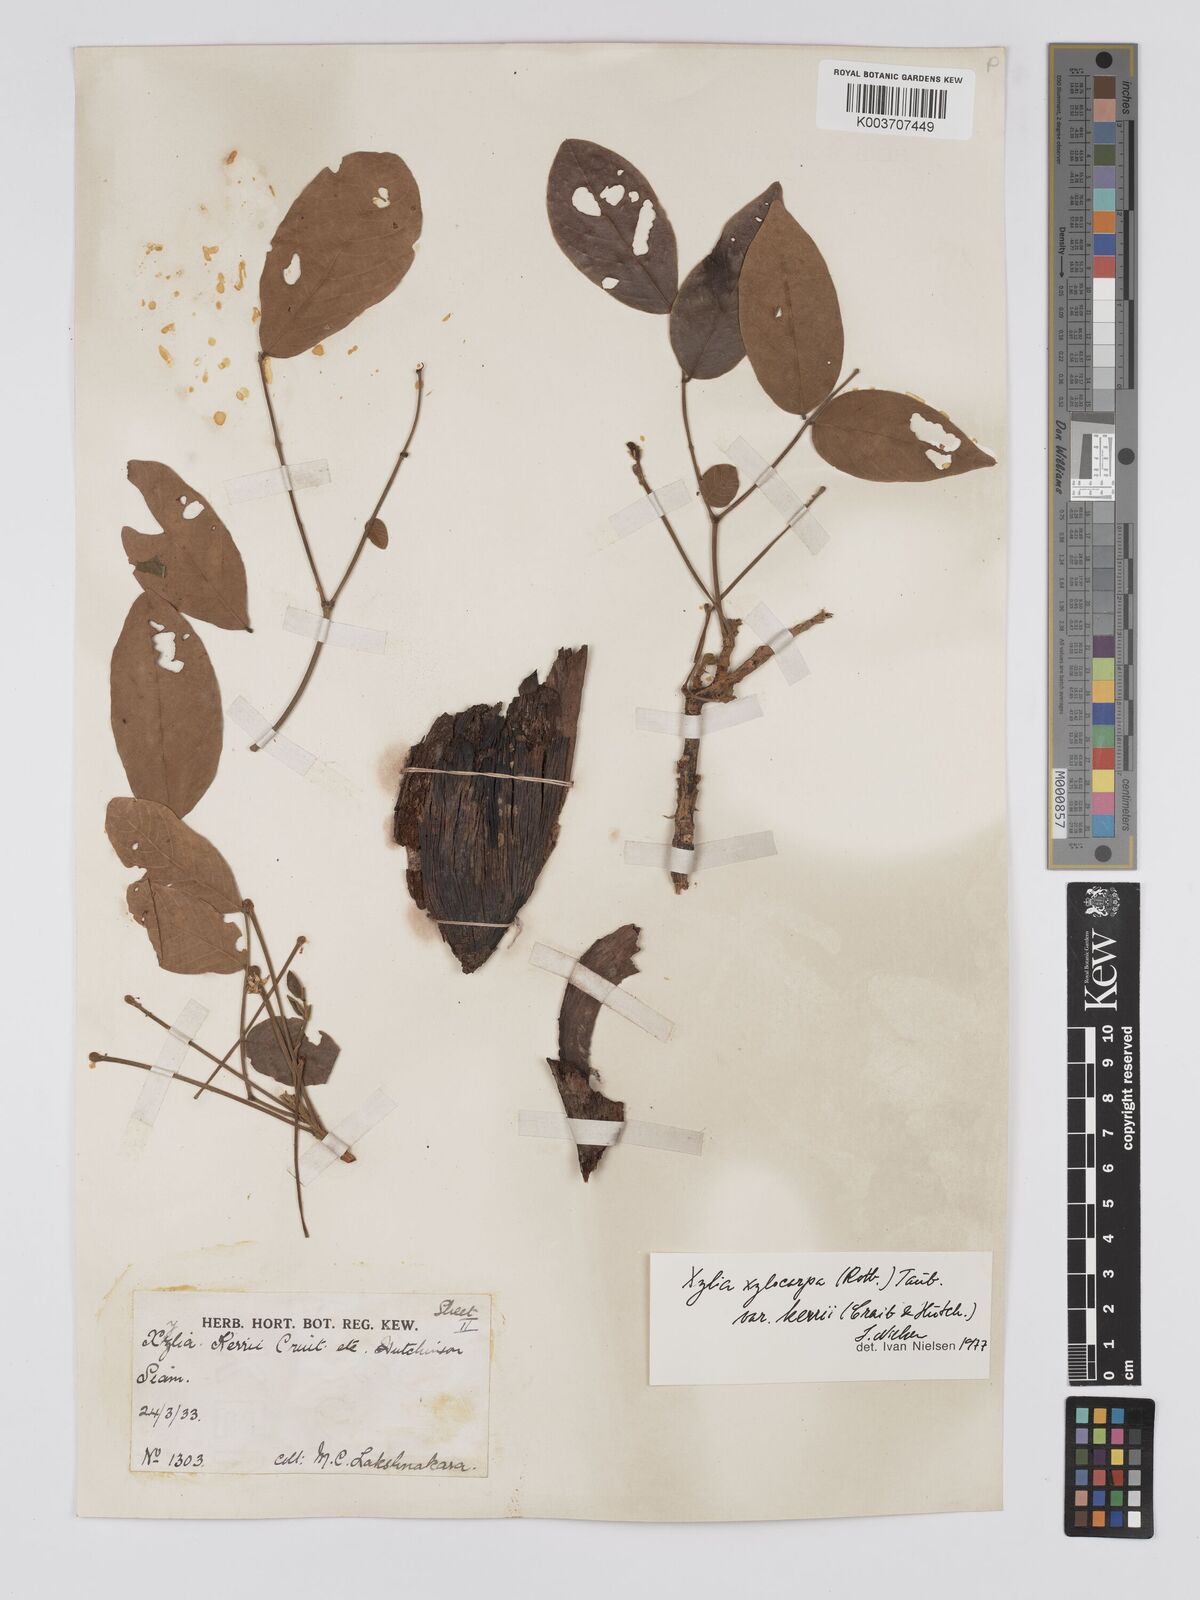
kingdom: Plantae
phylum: Tracheophyta
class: Magnoliopsida
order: Fabales
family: Fabaceae
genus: Xylia
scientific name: Xylia xylocarpa
